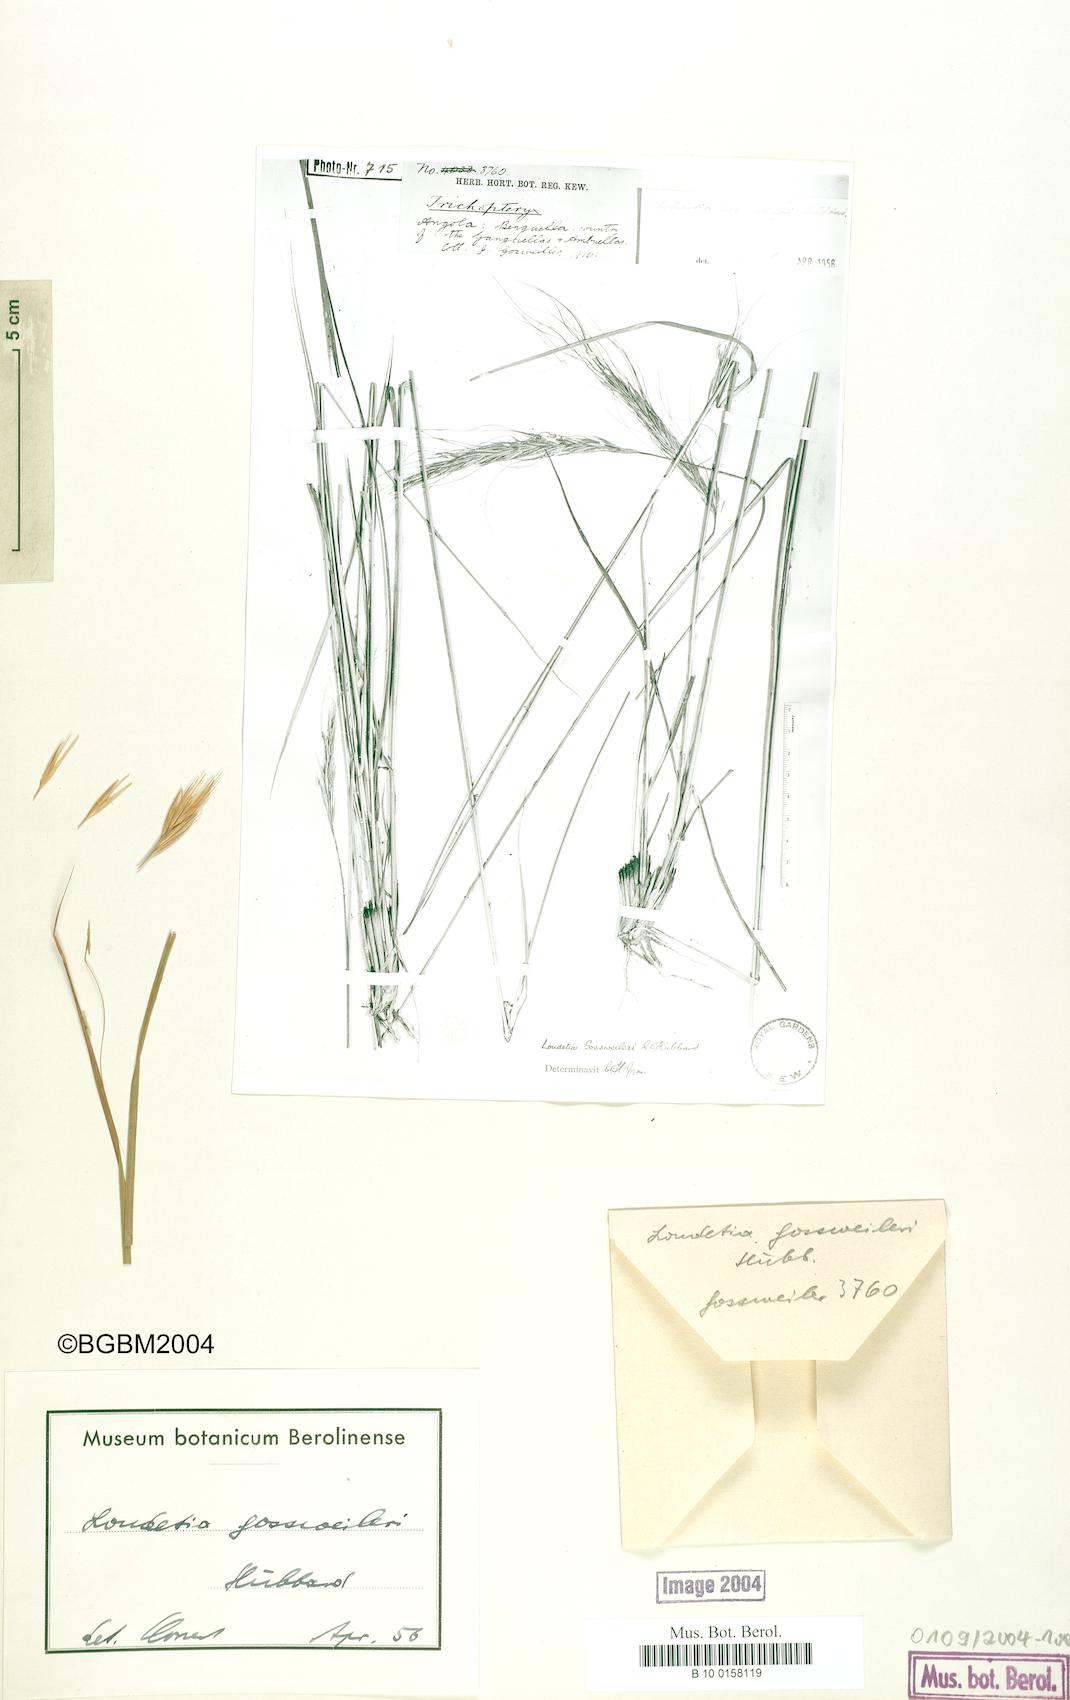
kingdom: Plantae
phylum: Tracheophyta
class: Liliopsida
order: Poales
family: Poaceae
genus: Loudetia
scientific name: Loudetia densispica
